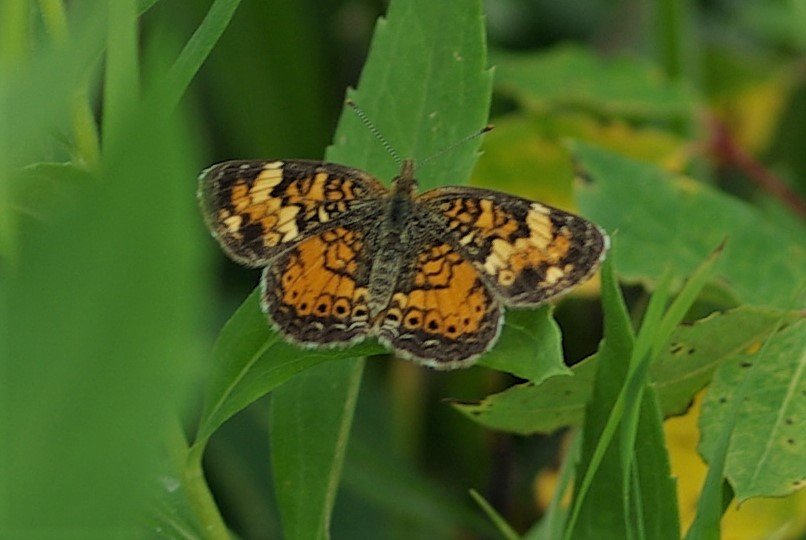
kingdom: Animalia
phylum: Arthropoda
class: Insecta
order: Lepidoptera
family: Nymphalidae
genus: Phyciodes
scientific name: Phyciodes tharos
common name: Northern Crescent
